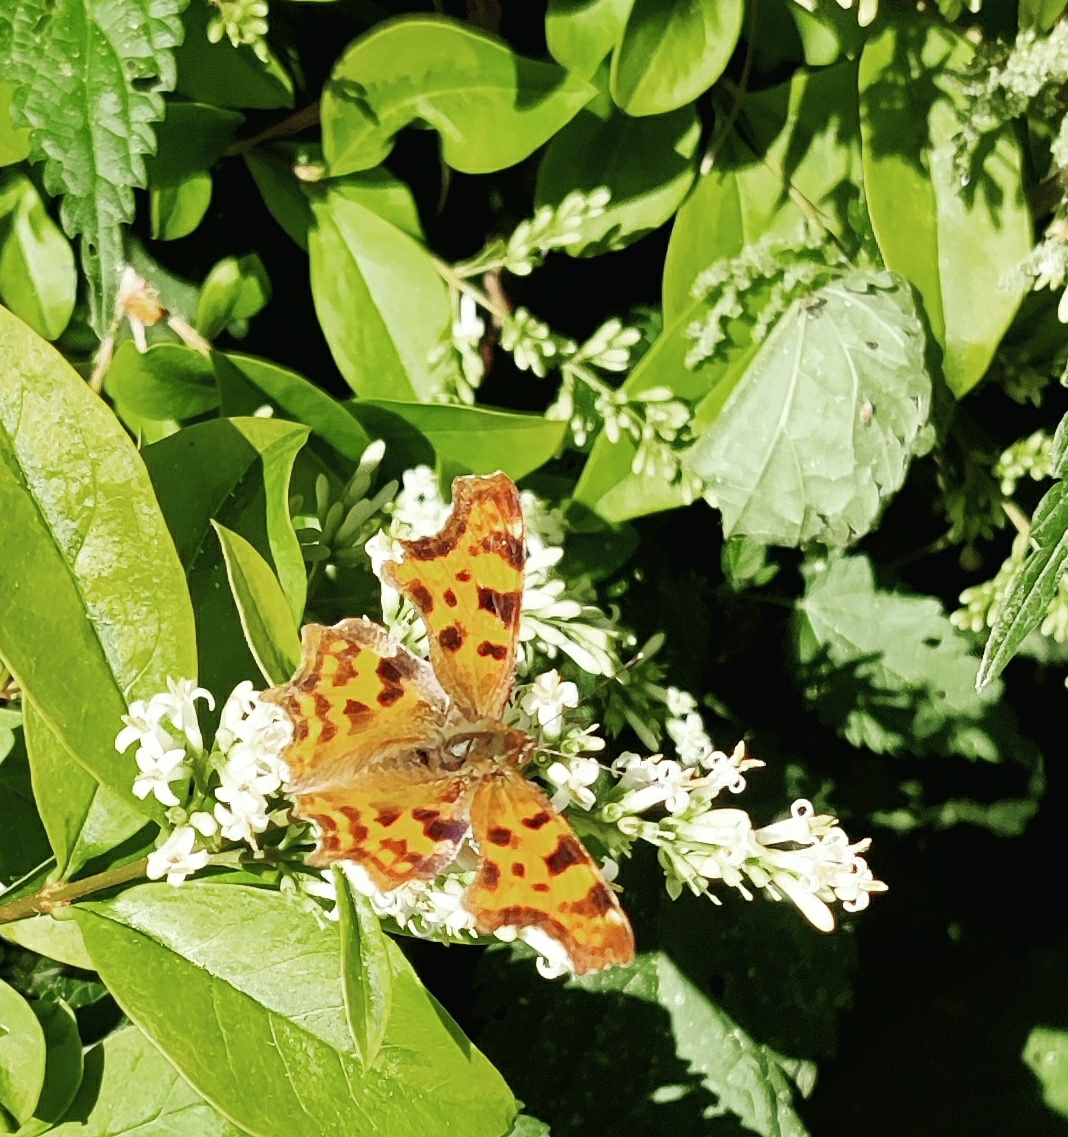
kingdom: Animalia
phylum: Arthropoda
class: Insecta
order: Lepidoptera
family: Nymphalidae
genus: Polygonia
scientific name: Polygonia c-album
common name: Det hvide C
